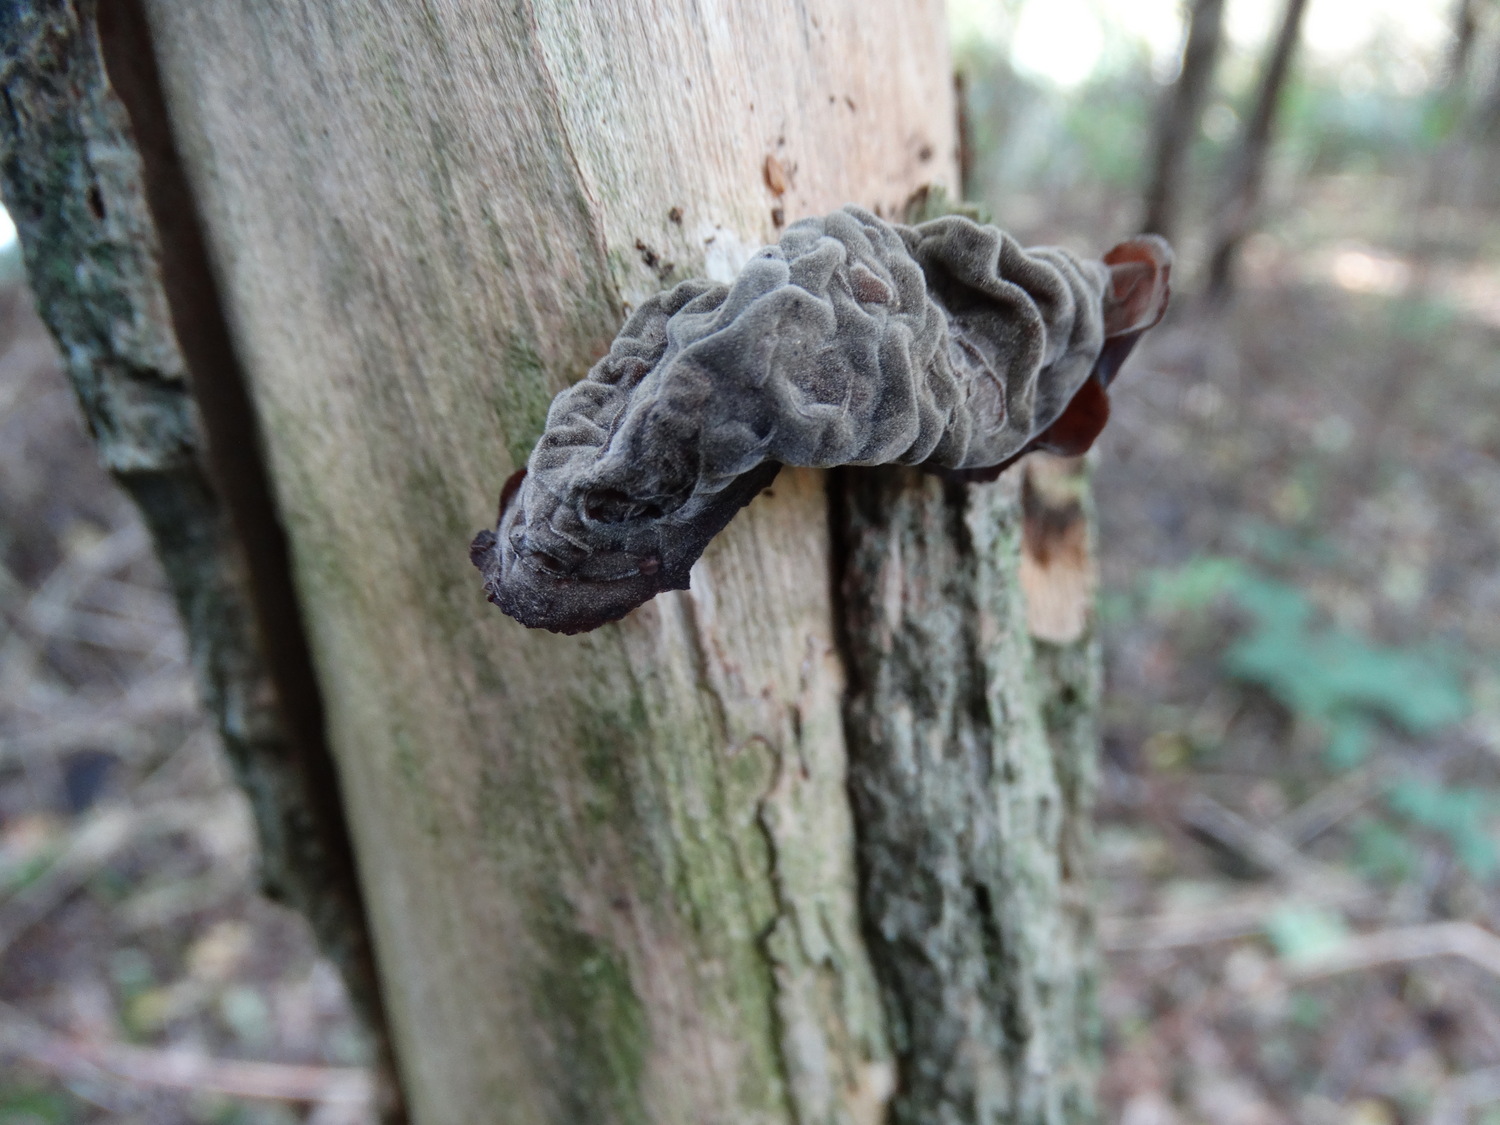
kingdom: Fungi
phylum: Basidiomycota
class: Agaricomycetes
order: Auriculariales
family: Auriculariaceae
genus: Auricularia
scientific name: Auricularia auricula-judae
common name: almindelig judasøre
